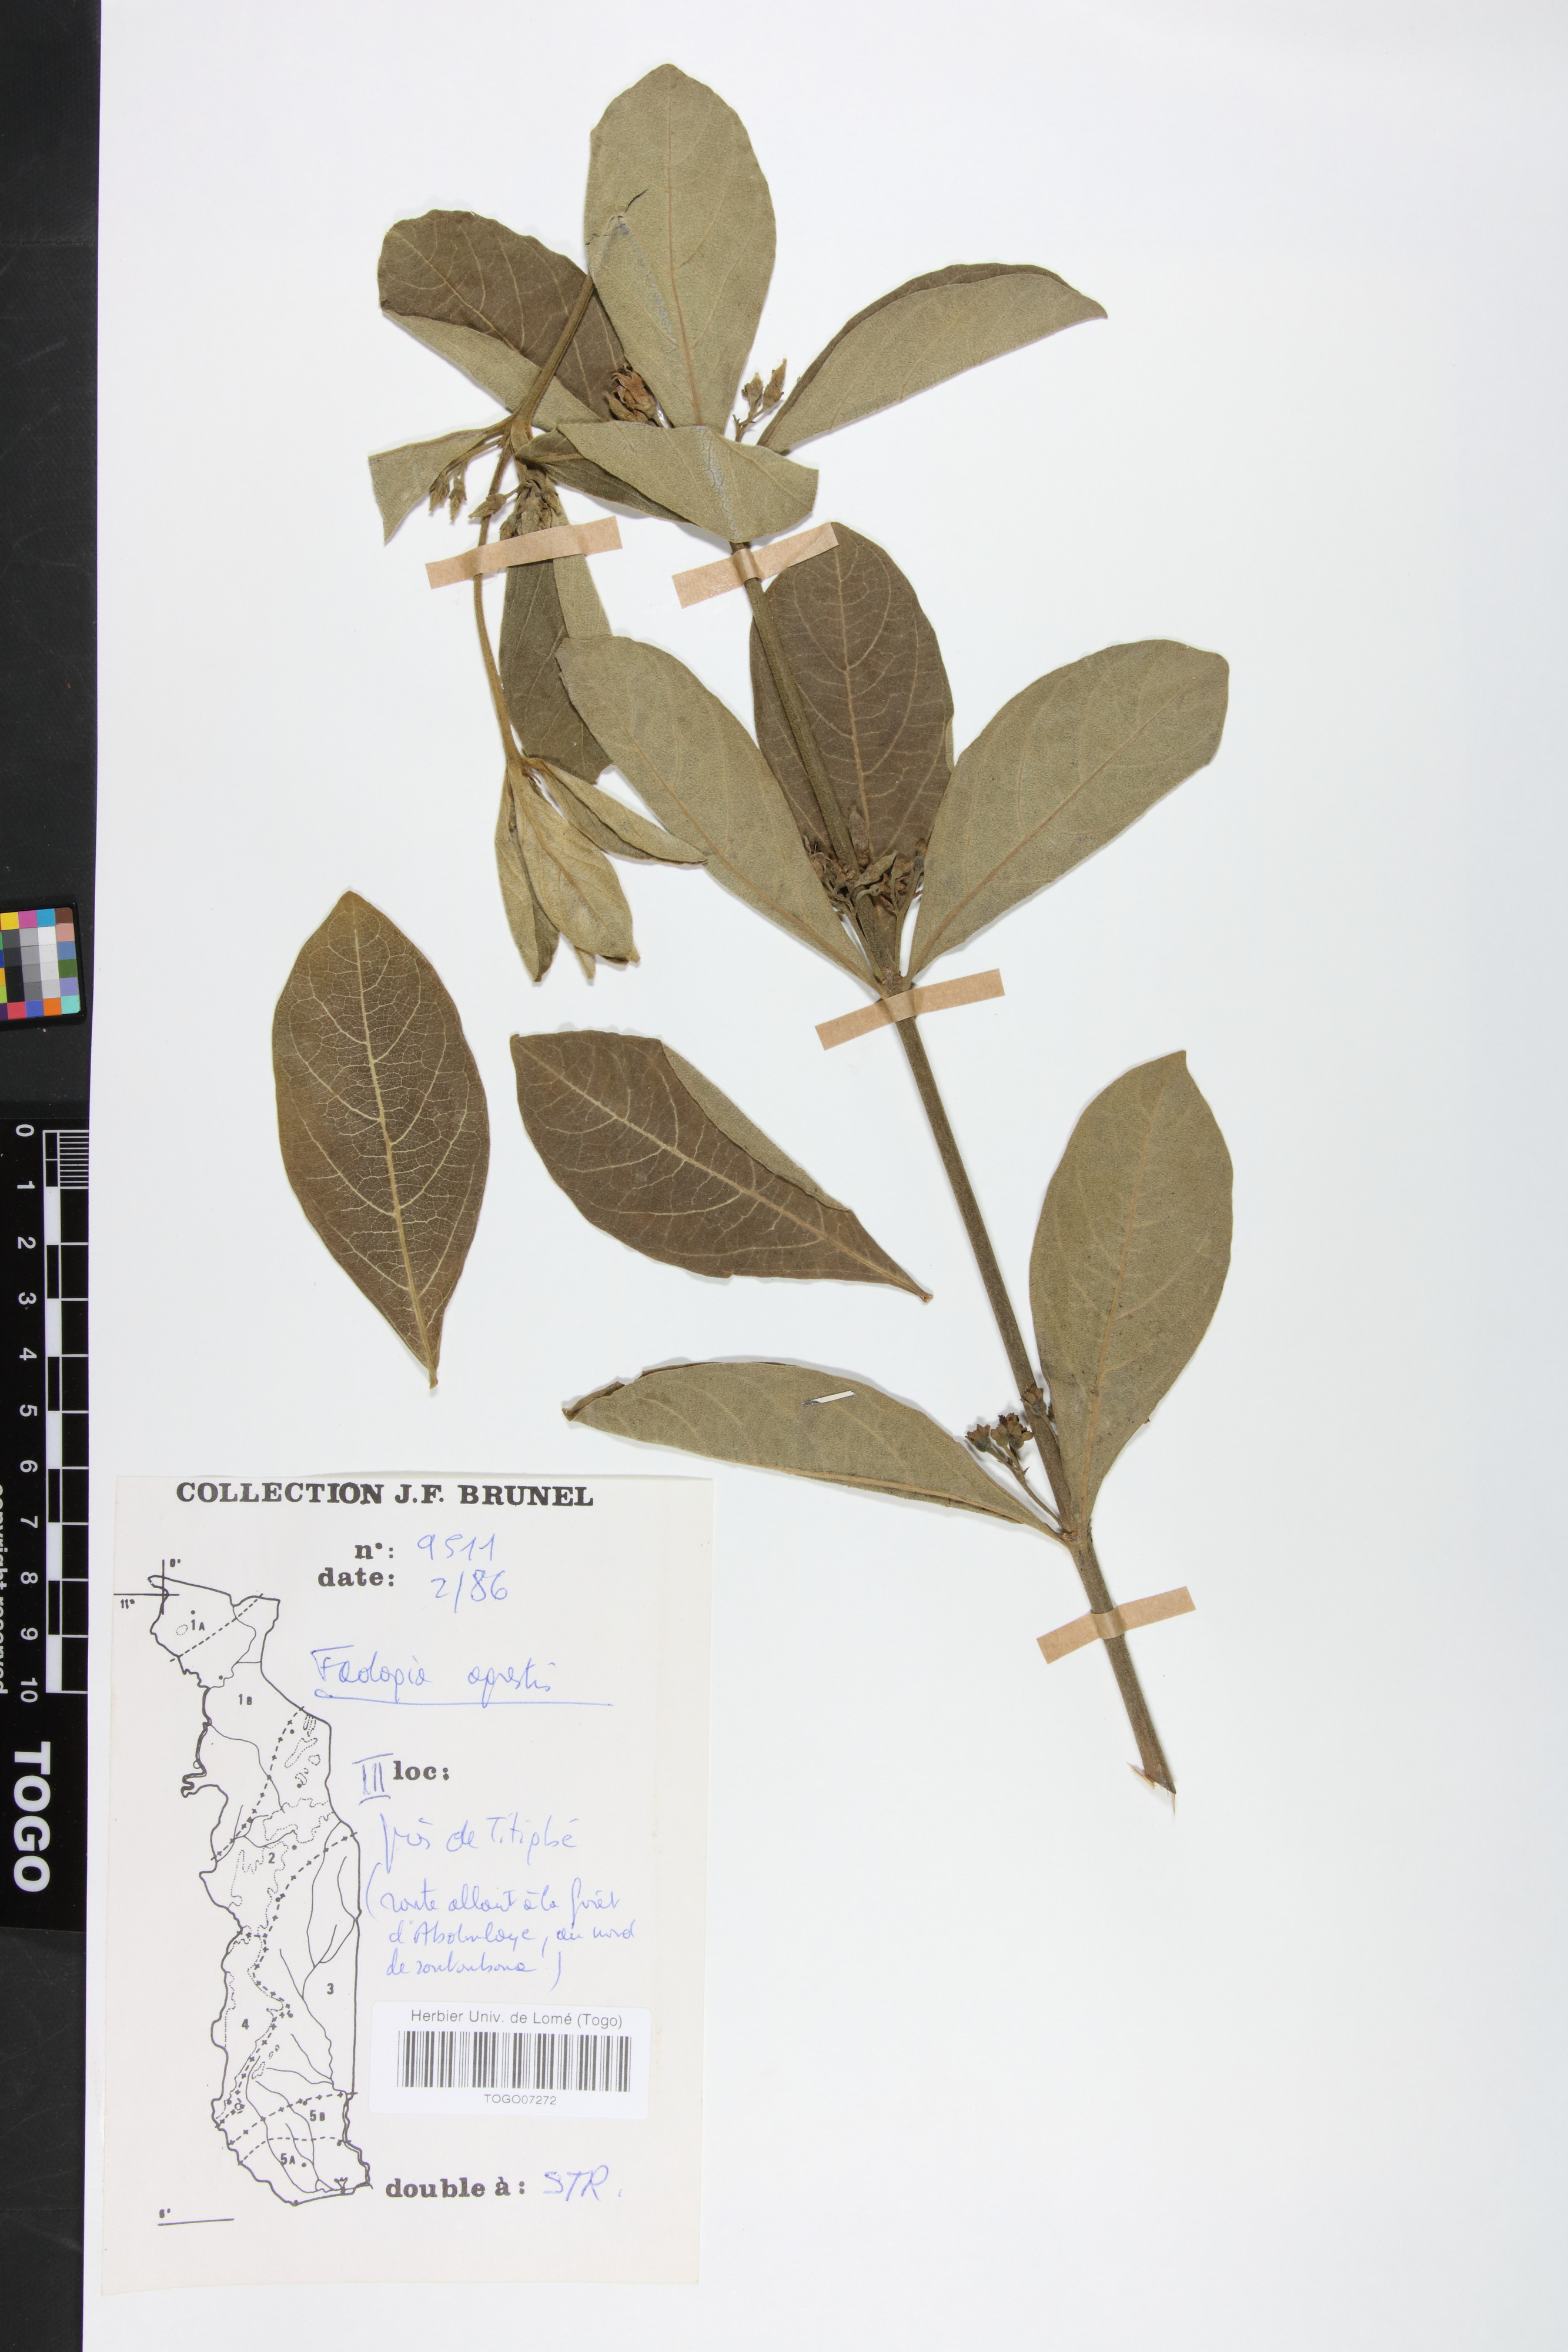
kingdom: Plantae
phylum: Tracheophyta
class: Magnoliopsida
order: Gentianales
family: Rubiaceae
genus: Vangueria
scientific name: Vangueria agrestis
